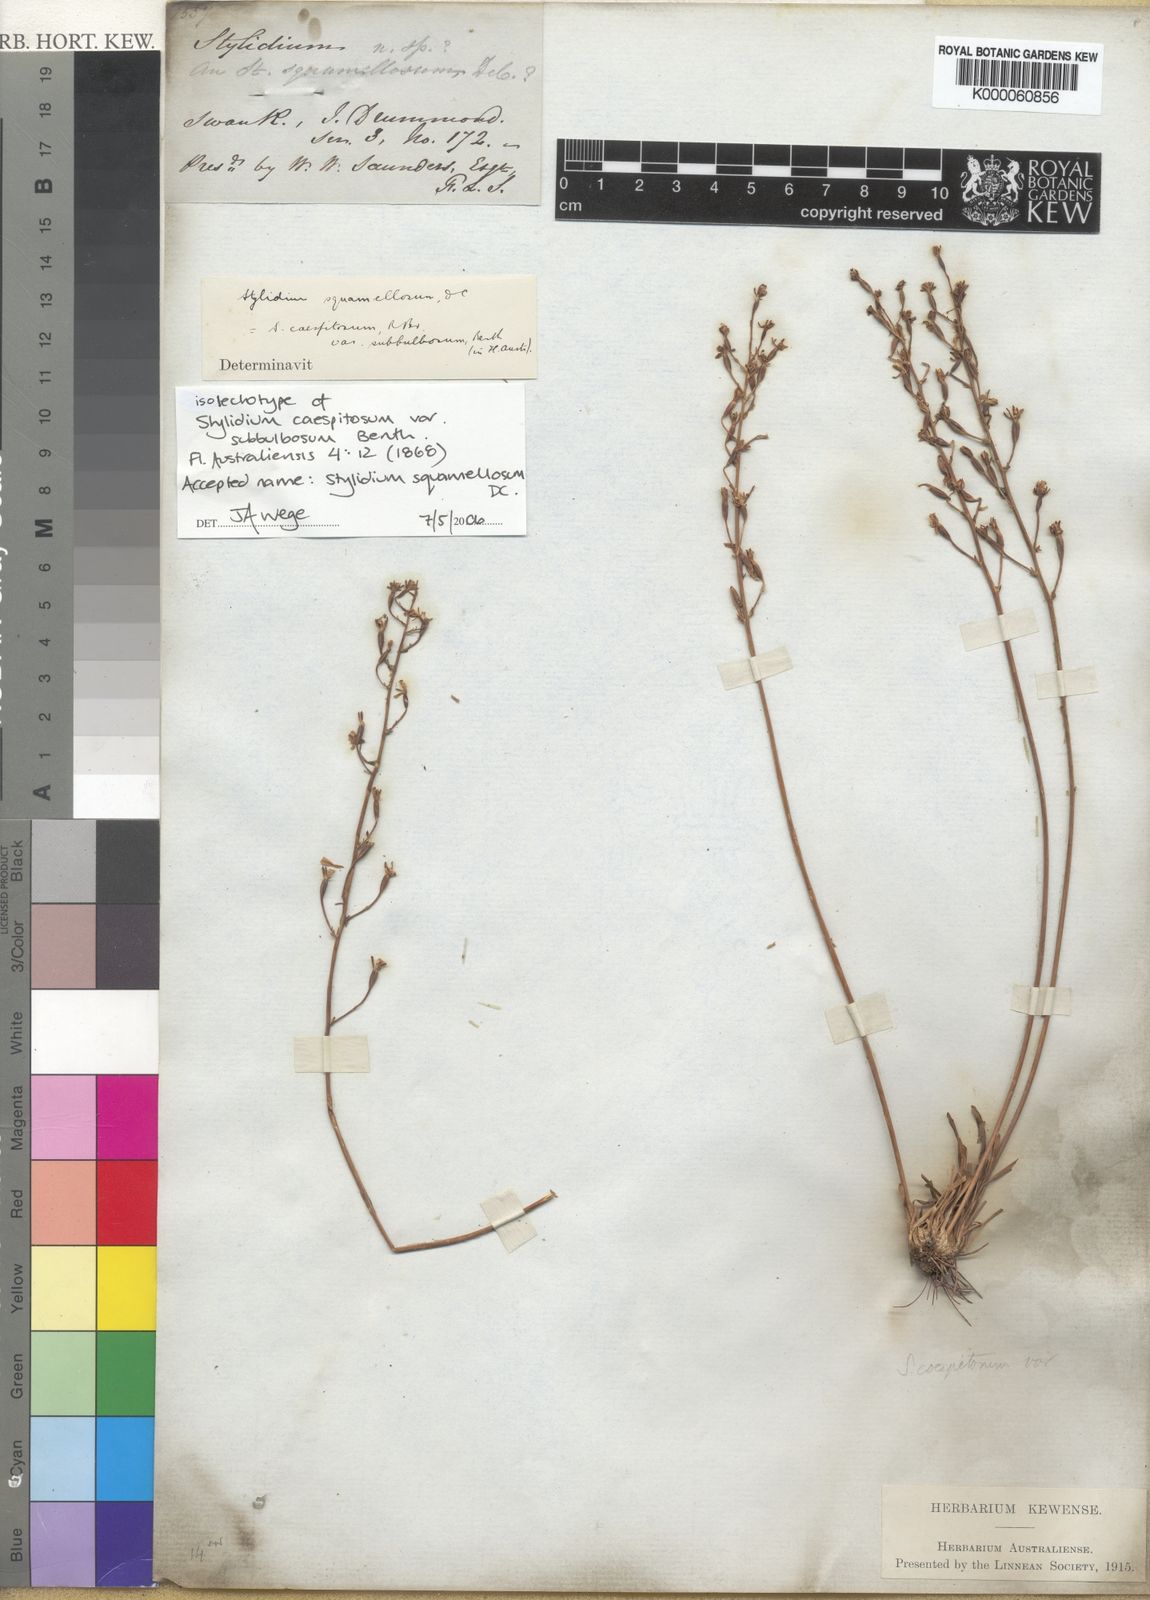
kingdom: Plantae
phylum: Tracheophyta
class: Magnoliopsida
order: Asterales
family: Stylidiaceae
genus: Stylidium
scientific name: Stylidium squamellosum
